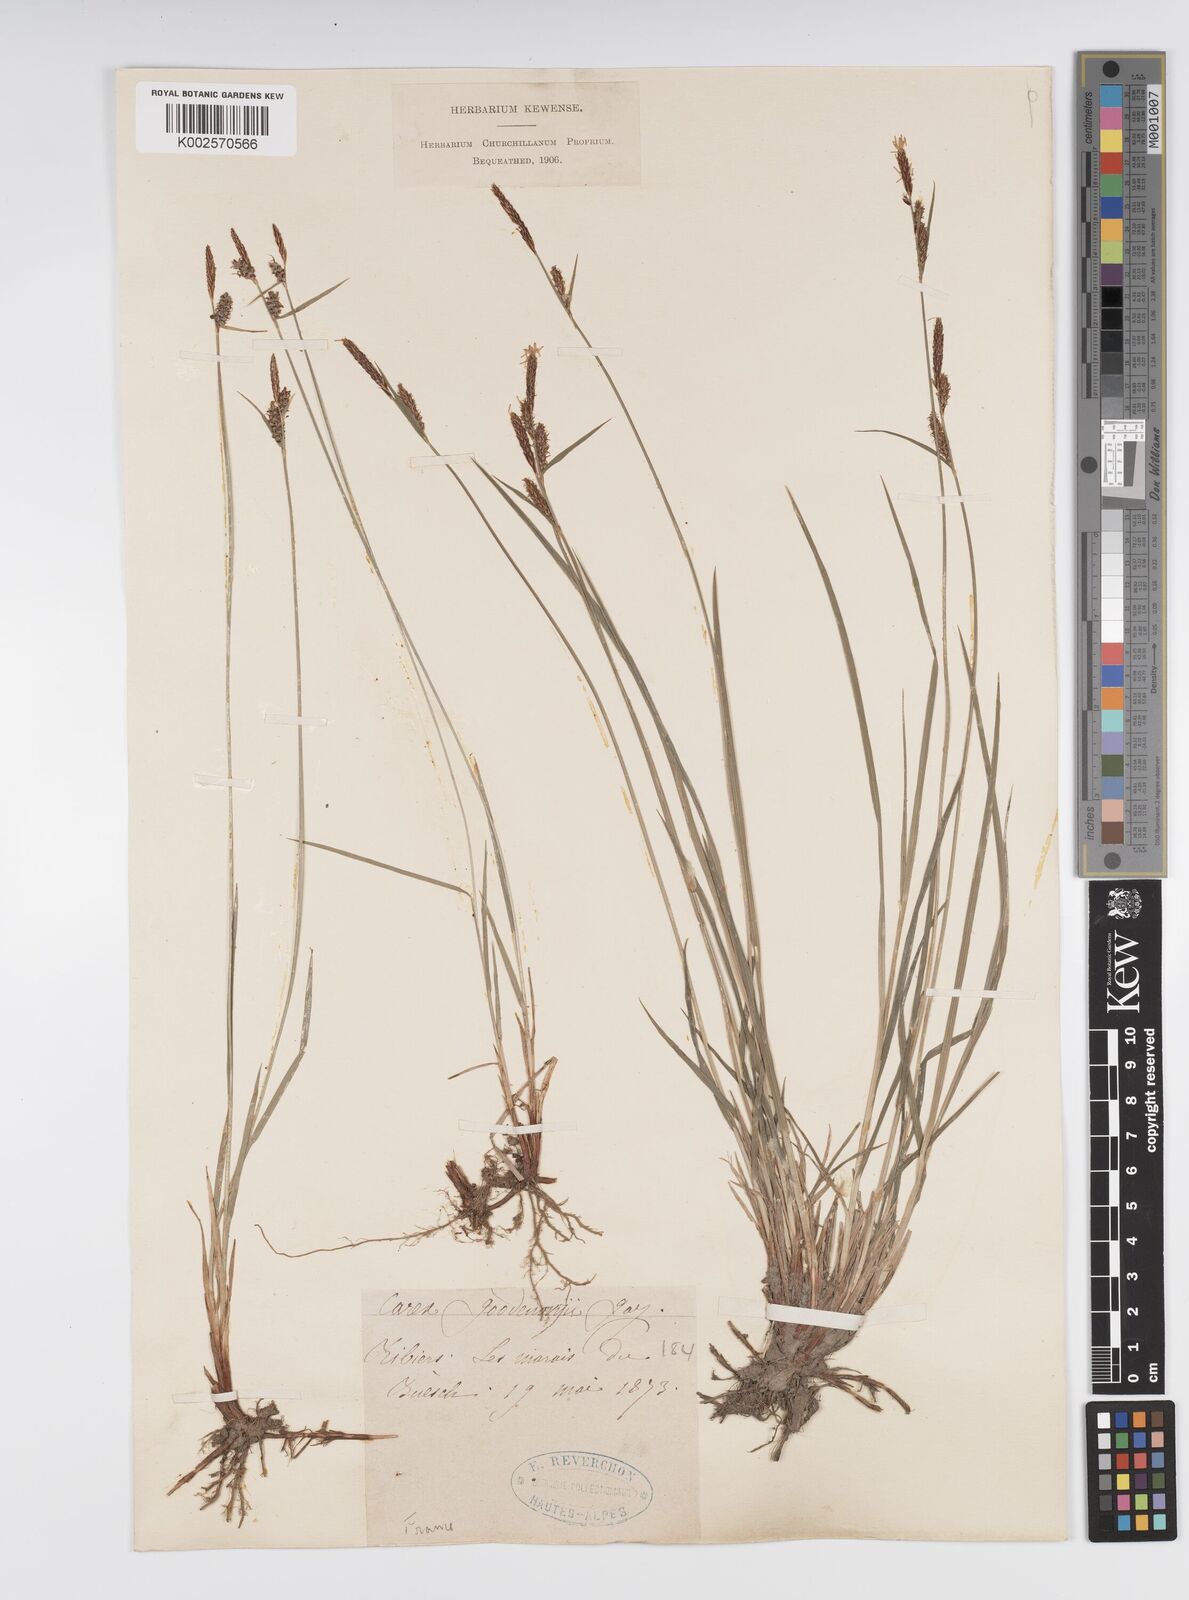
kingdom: Plantae
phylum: Tracheophyta
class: Liliopsida
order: Poales
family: Cyperaceae
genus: Carex
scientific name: Carex montana
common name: Soft-leaved sedge
